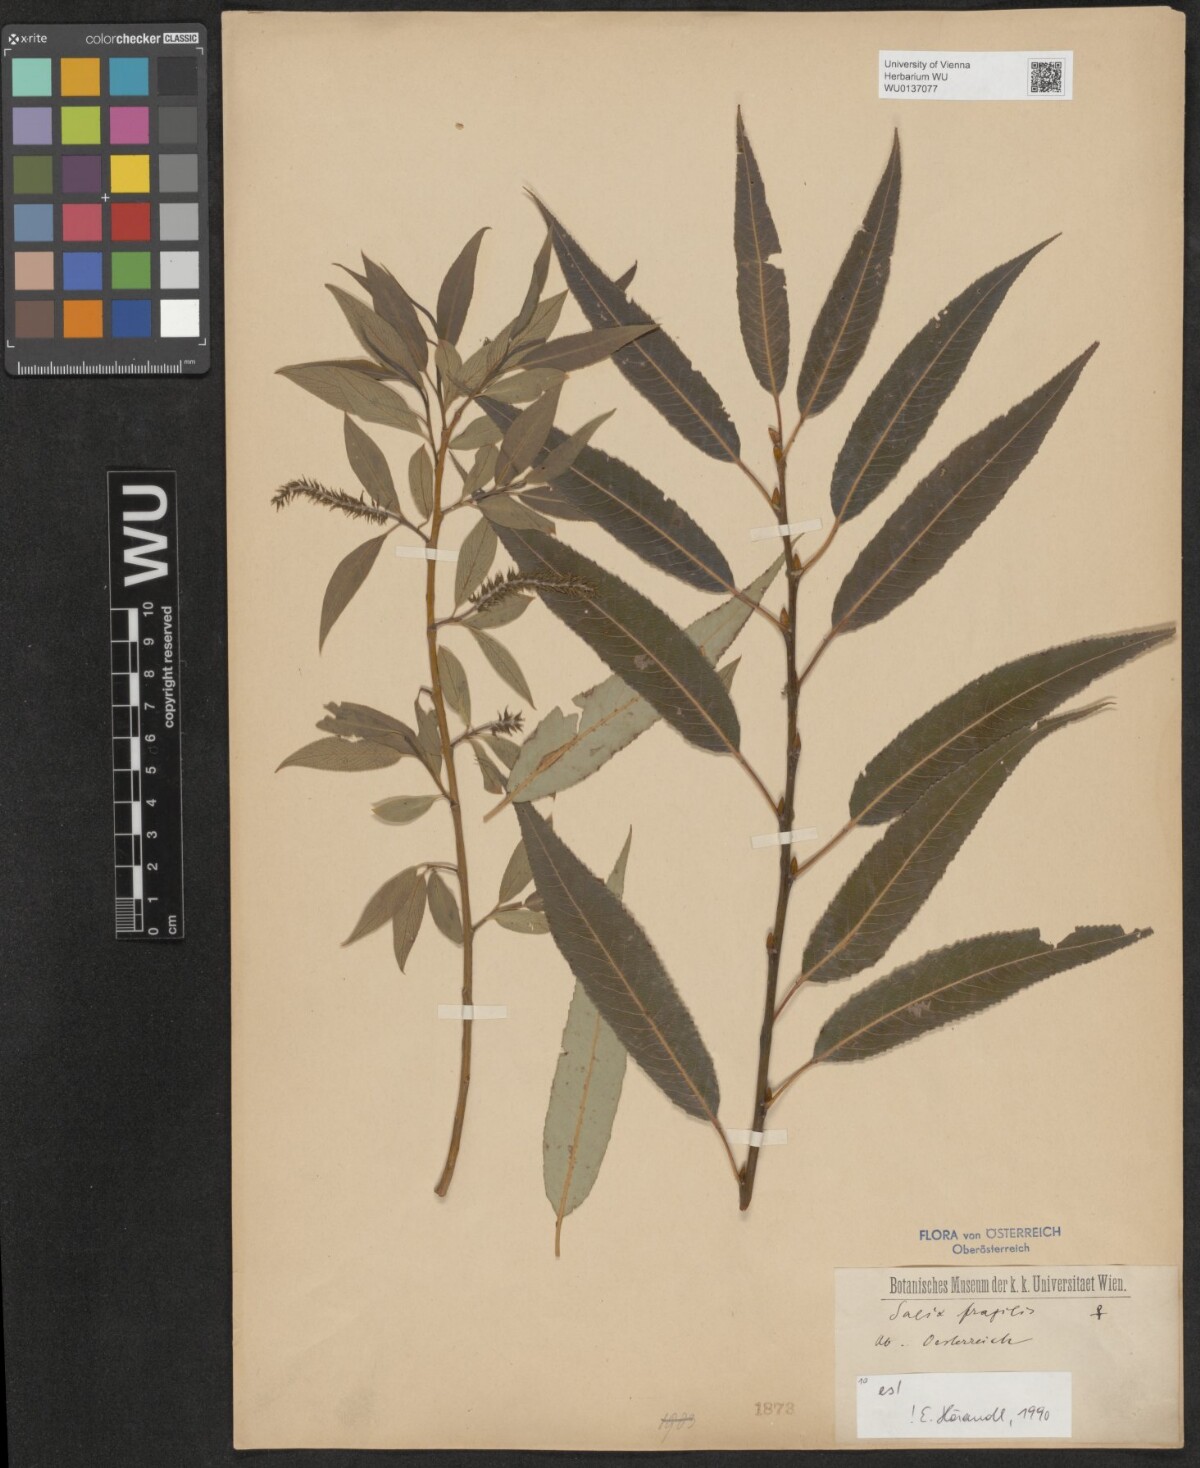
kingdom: Plantae
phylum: Tracheophyta
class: Magnoliopsida
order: Malpighiales
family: Salicaceae
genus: Salix
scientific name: Salix fragilis
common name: Crack willow
